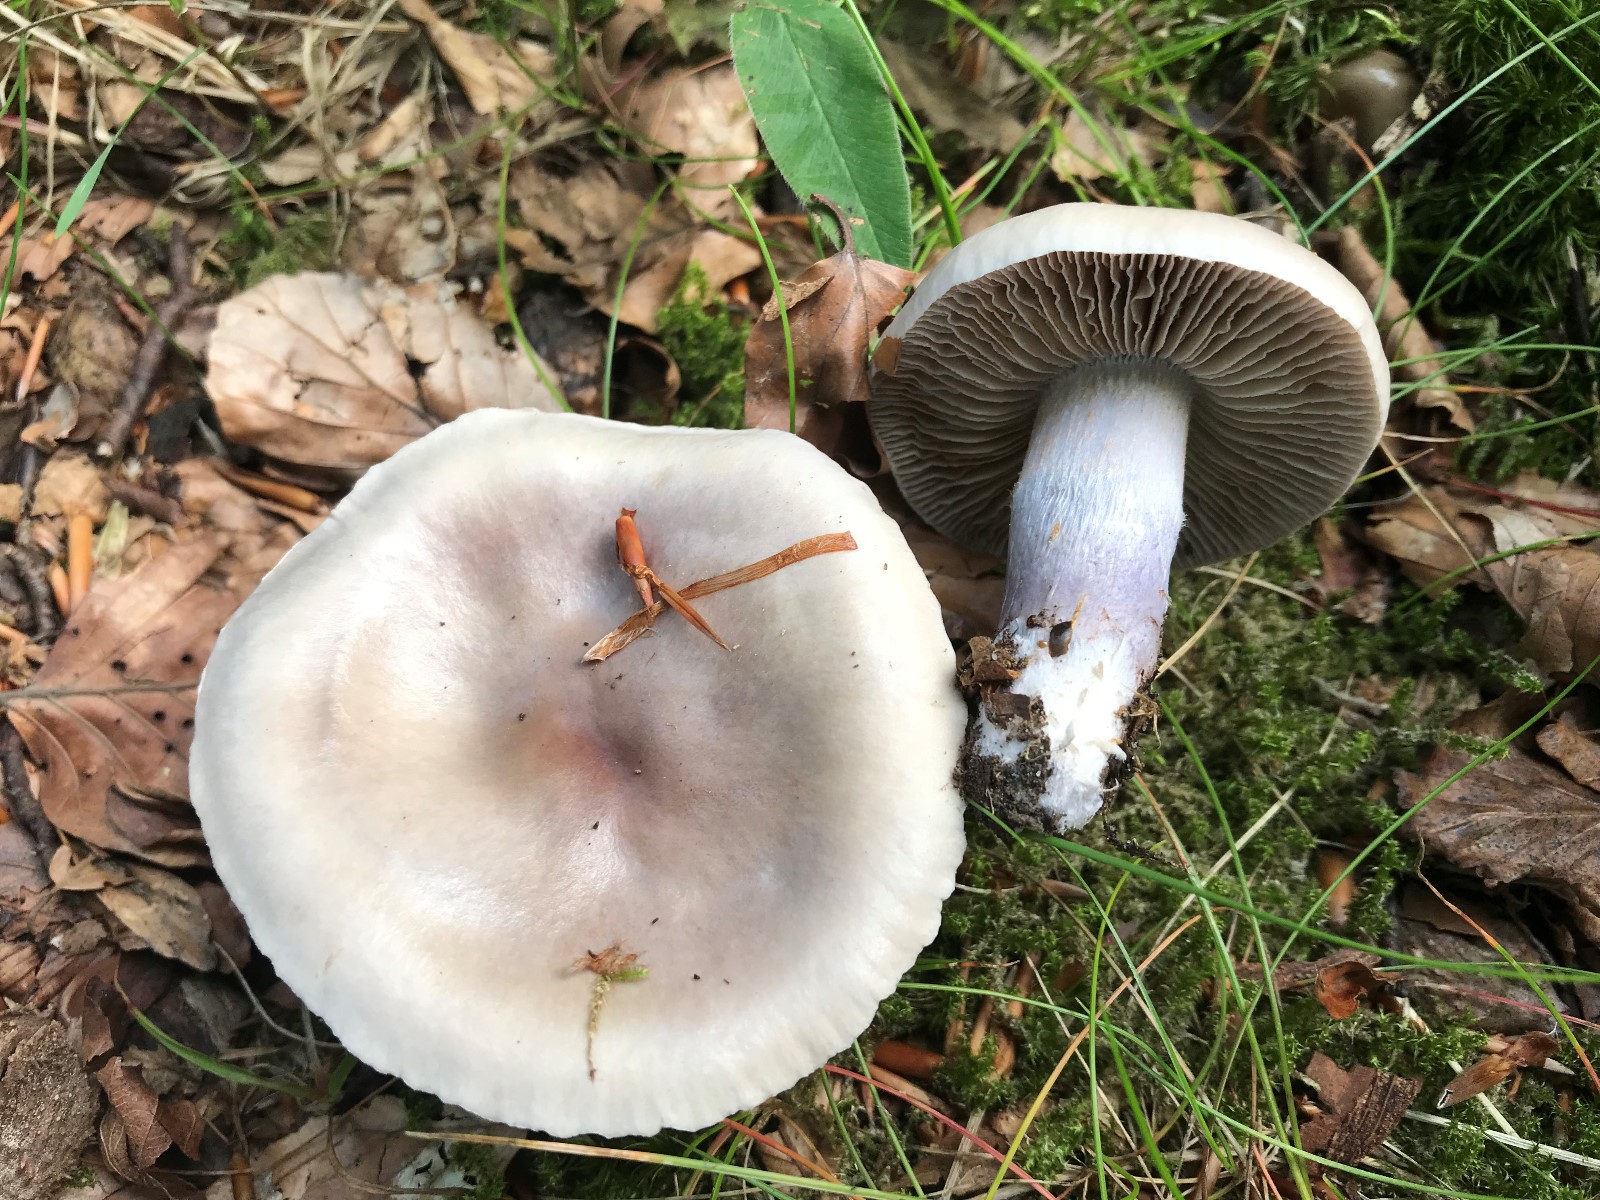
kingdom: Fungi
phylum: Basidiomycota
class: Agaricomycetes
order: Agaricales
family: Cortinariaceae
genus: Cortinarius
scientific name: Cortinarius livido-ochraceus
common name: halvhøj slørhat
